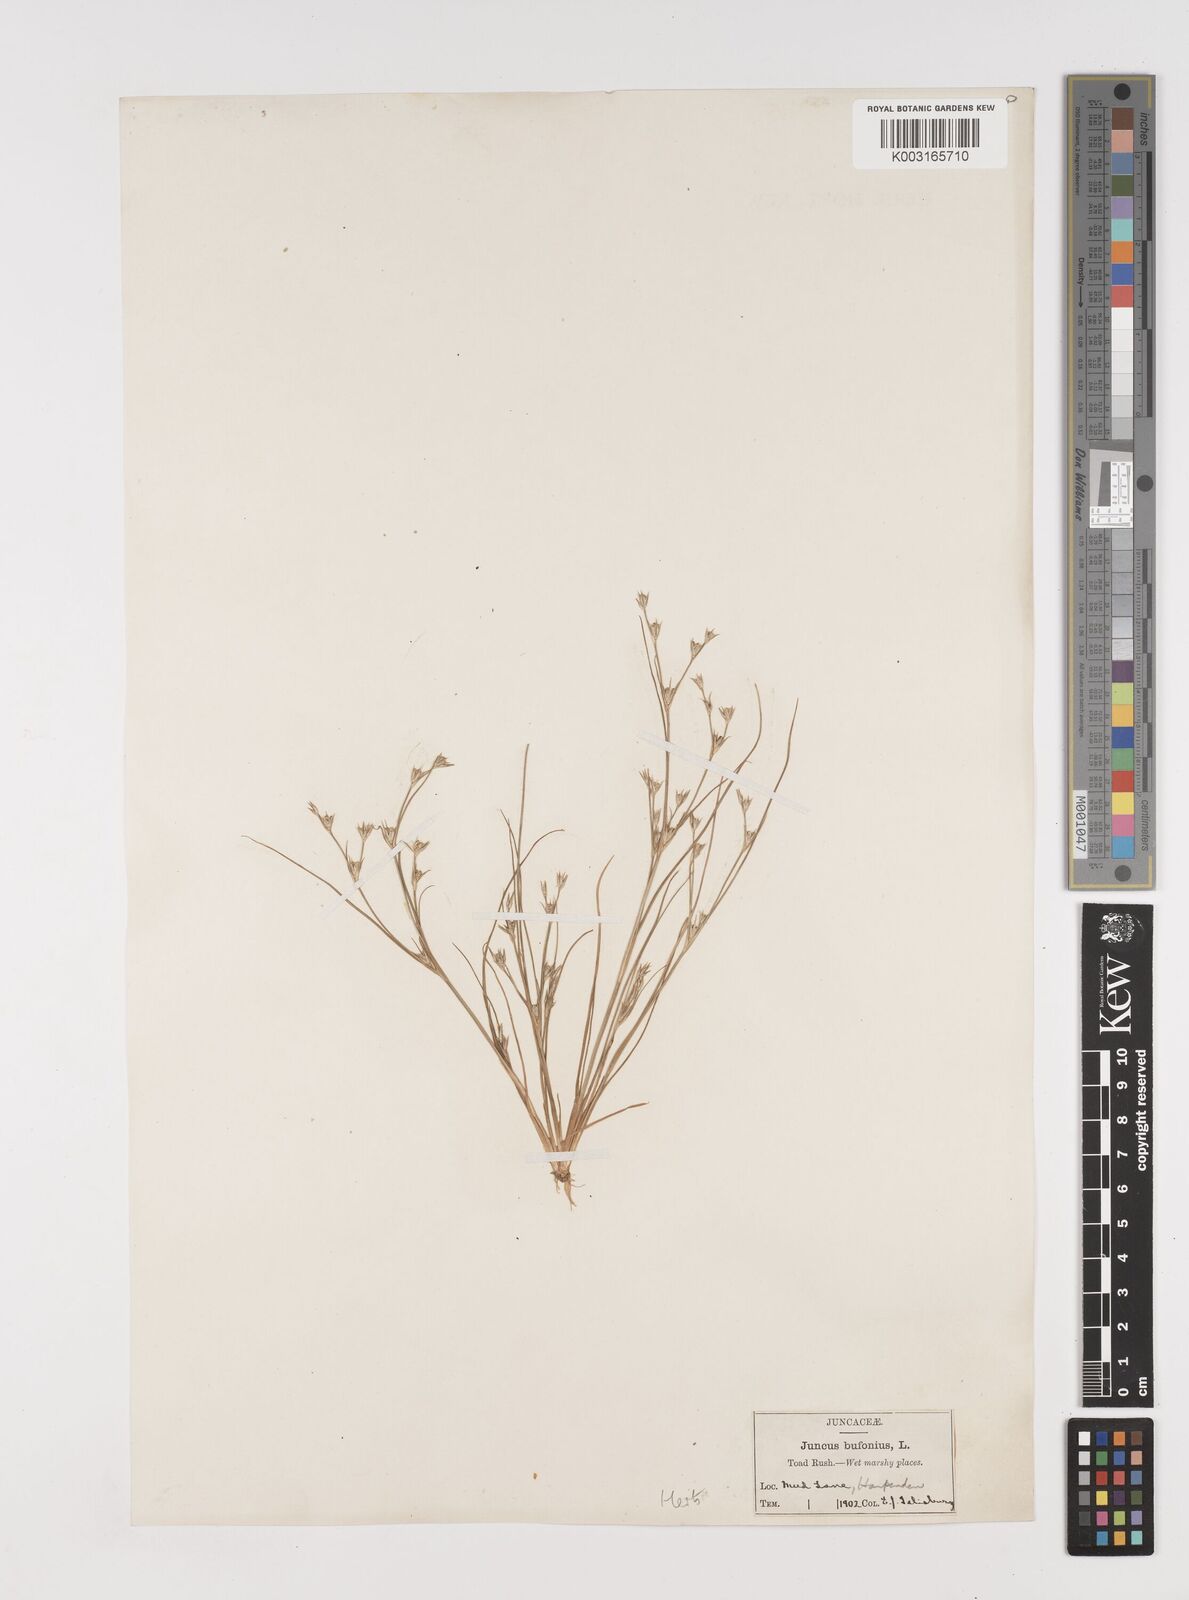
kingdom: Plantae
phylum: Tracheophyta
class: Liliopsida
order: Poales
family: Juncaceae
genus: Juncus
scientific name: Juncus bufonius
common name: Toad rush
